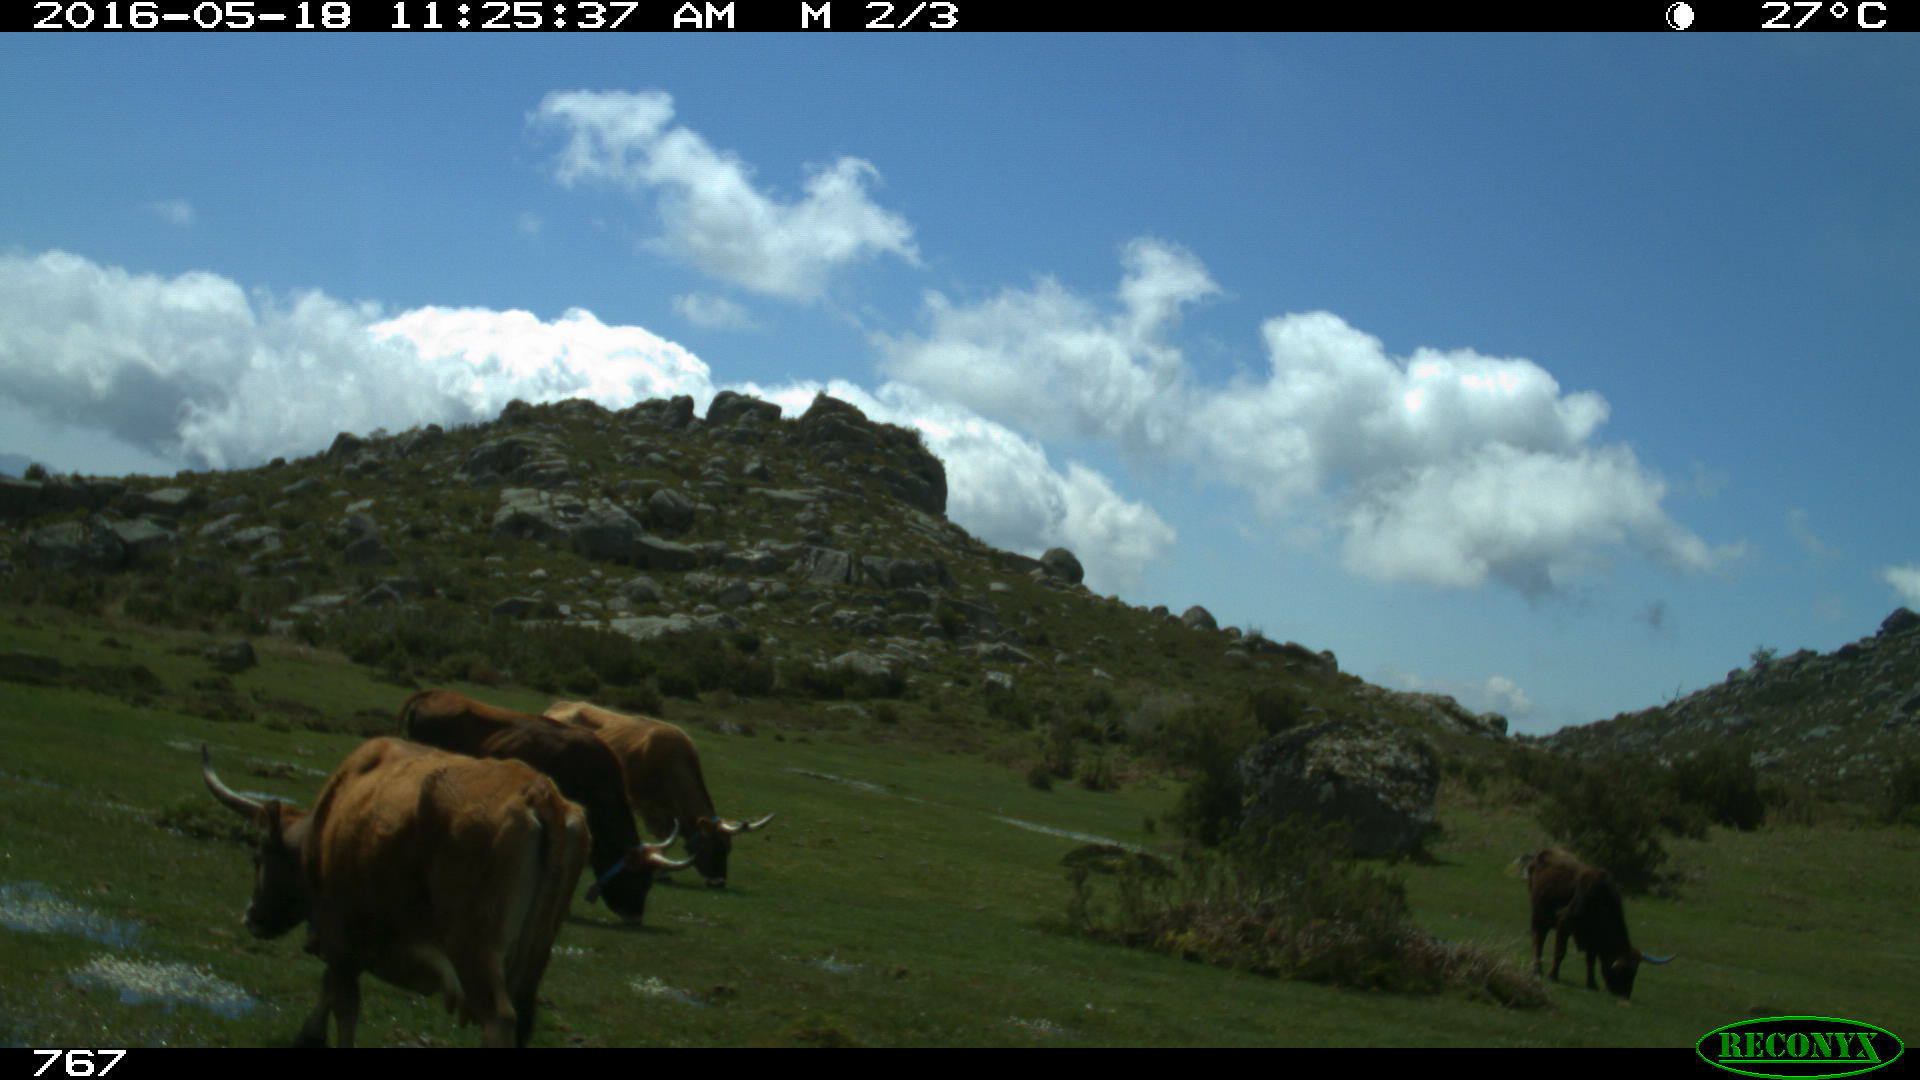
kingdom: Animalia
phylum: Chordata
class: Mammalia
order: Artiodactyla
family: Bovidae
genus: Bos
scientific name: Bos taurus
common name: Domesticated cattle
